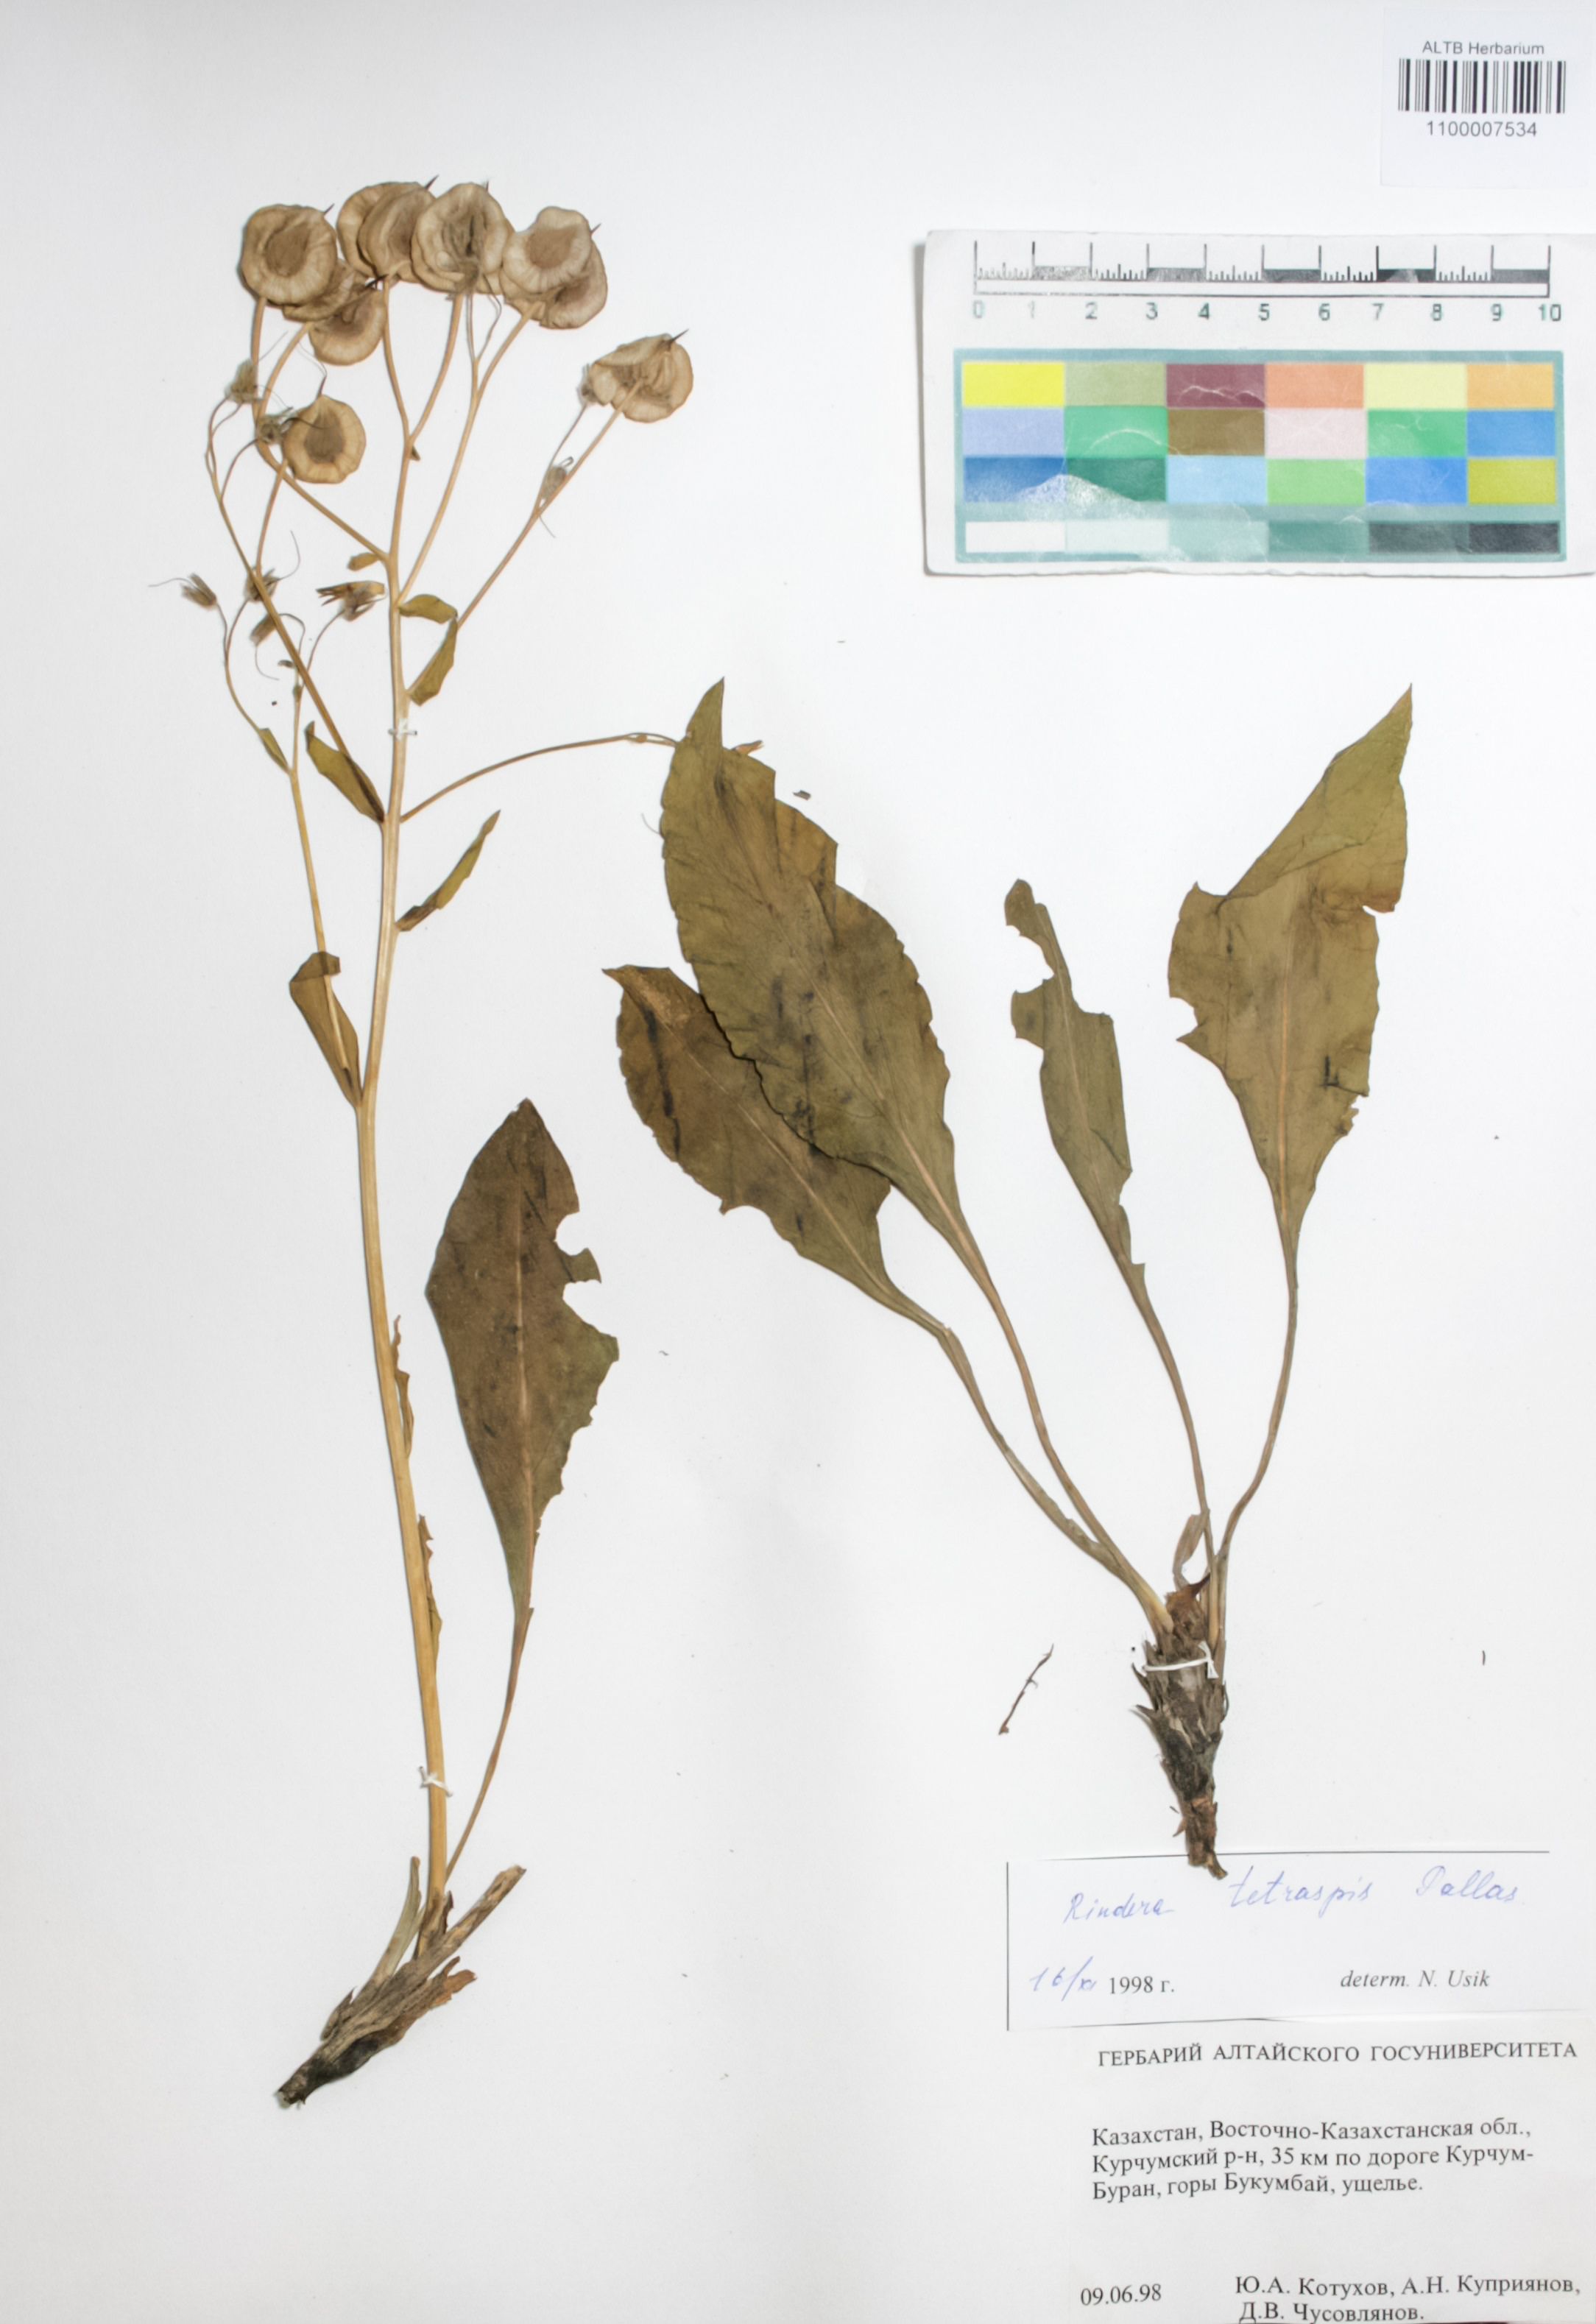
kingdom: Plantae
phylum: Tracheophyta
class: Magnoliopsida
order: Boraginales
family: Boraginaceae
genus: Rindera
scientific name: Rindera tetraspis
